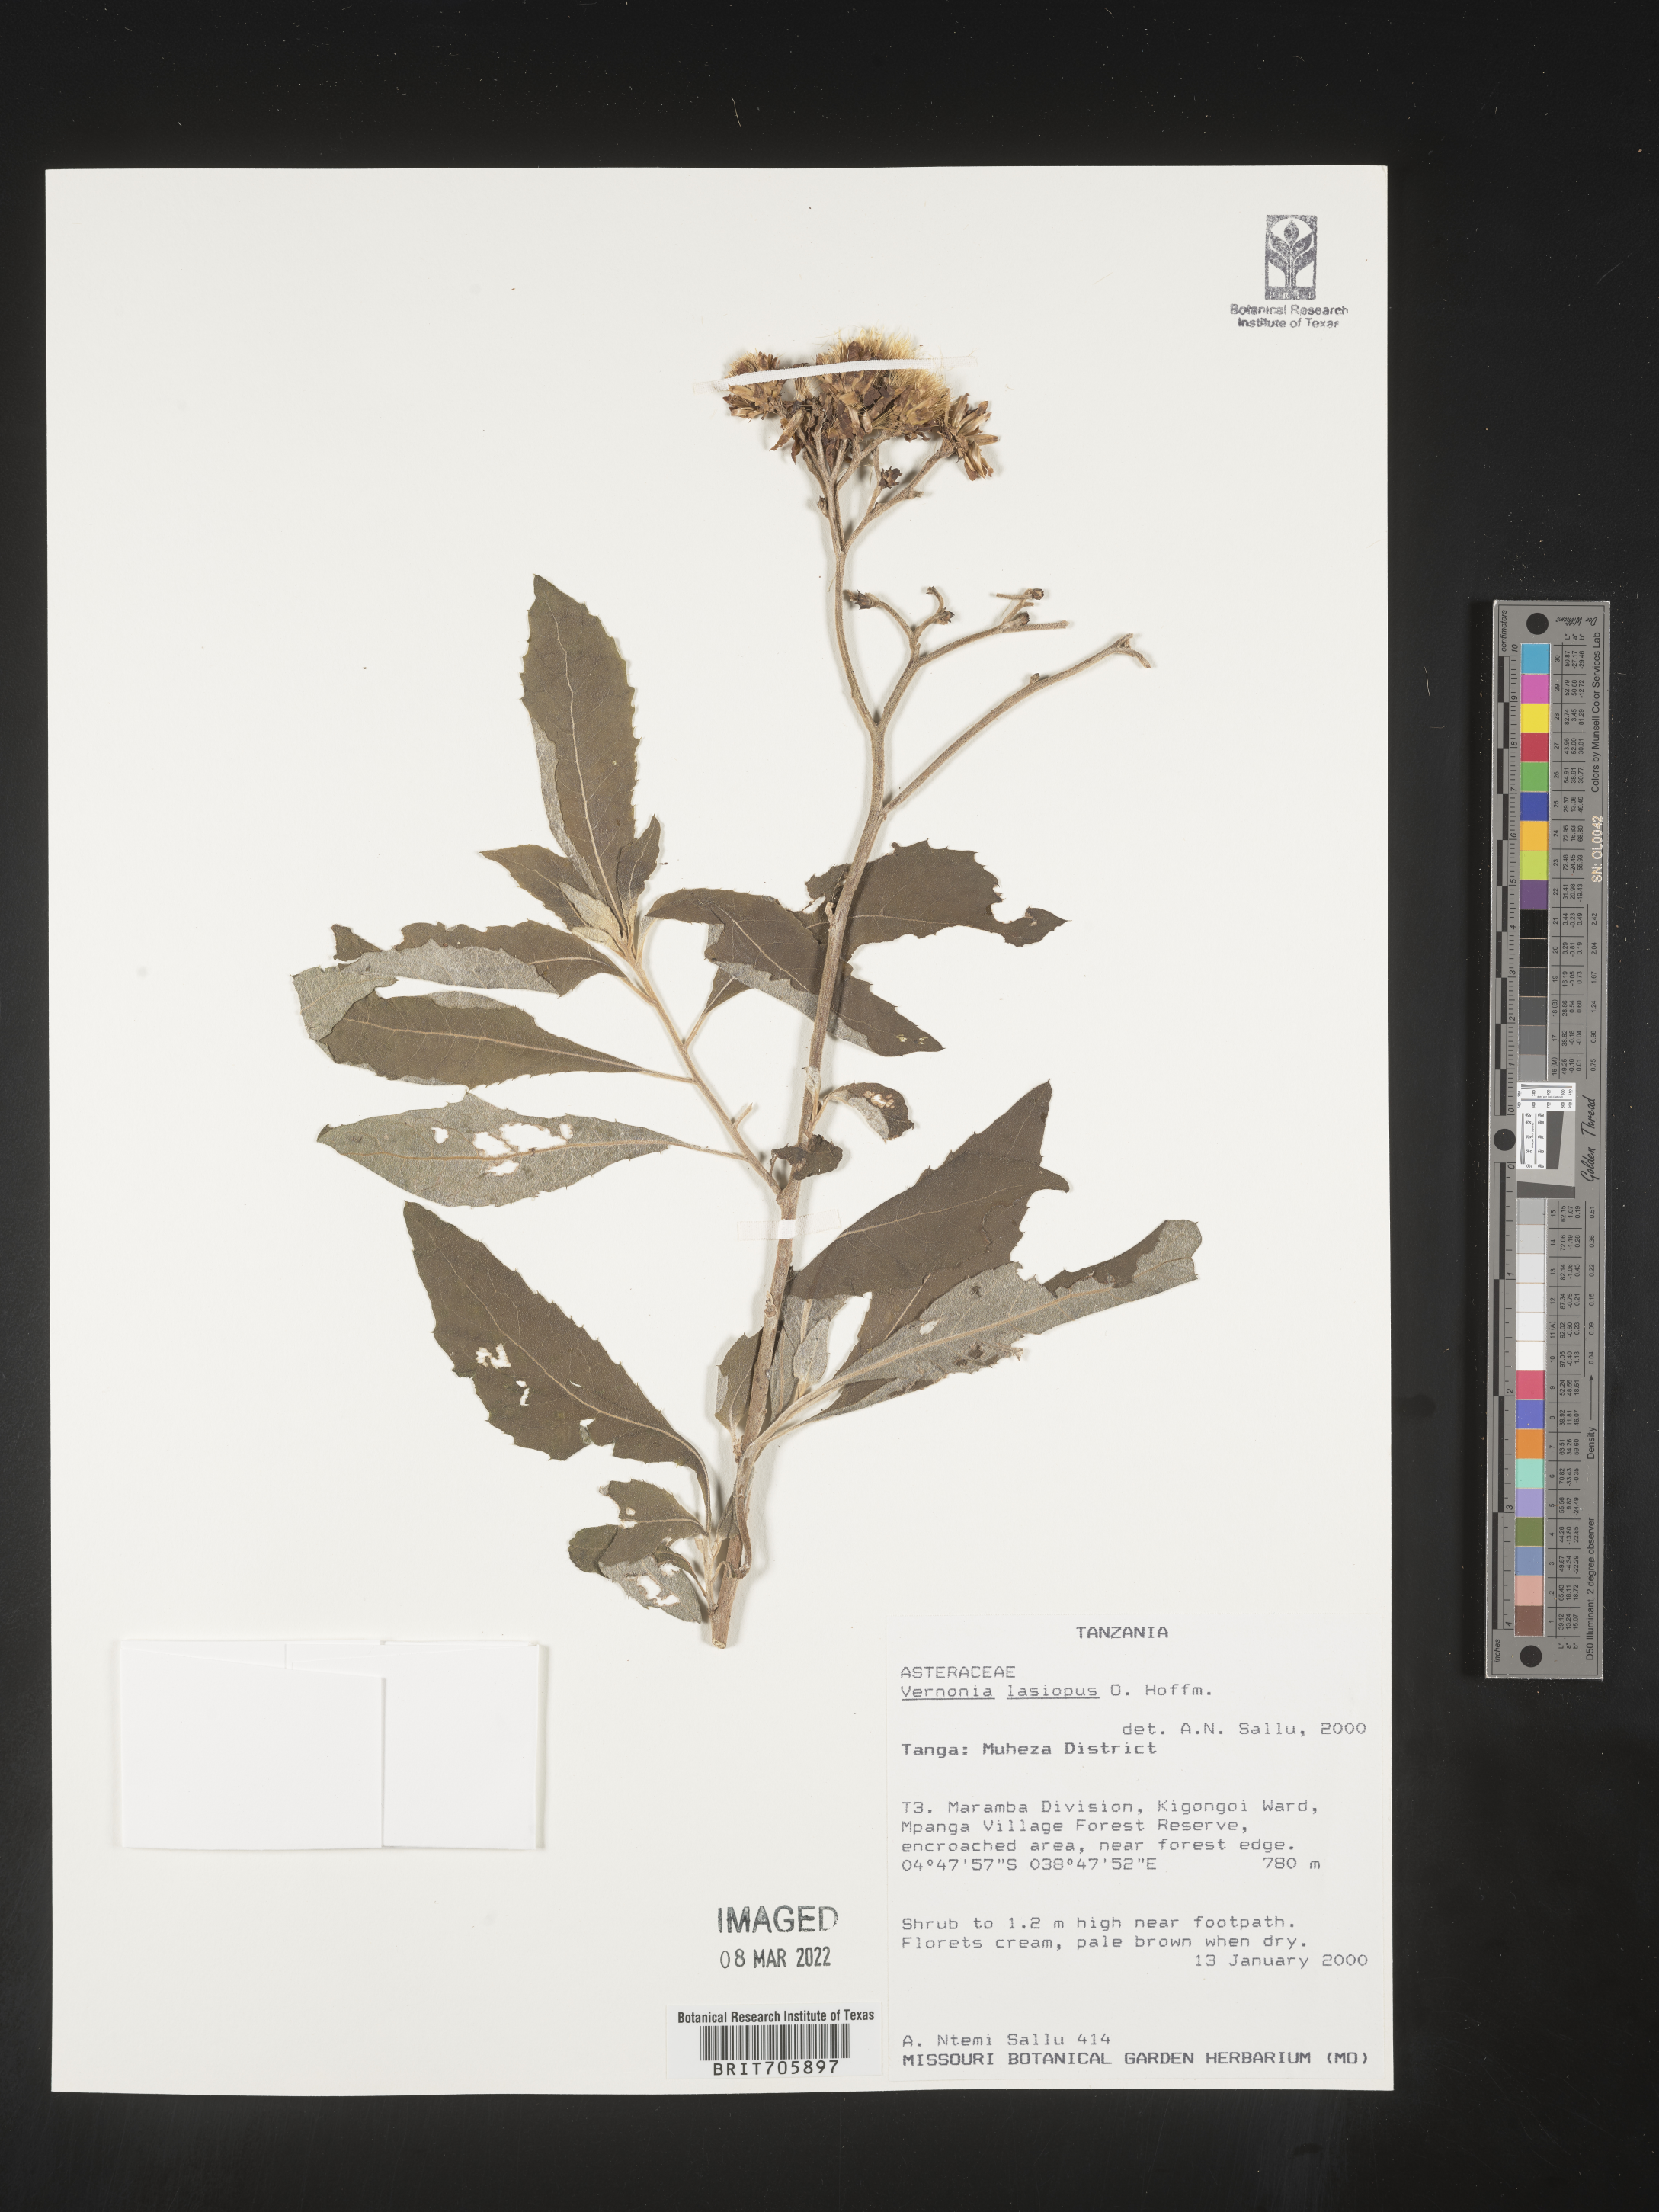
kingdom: Plantae
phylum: Tracheophyta
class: Magnoliopsida
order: Asterales
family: Asteraceae
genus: Vernonia
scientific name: Vernonia
